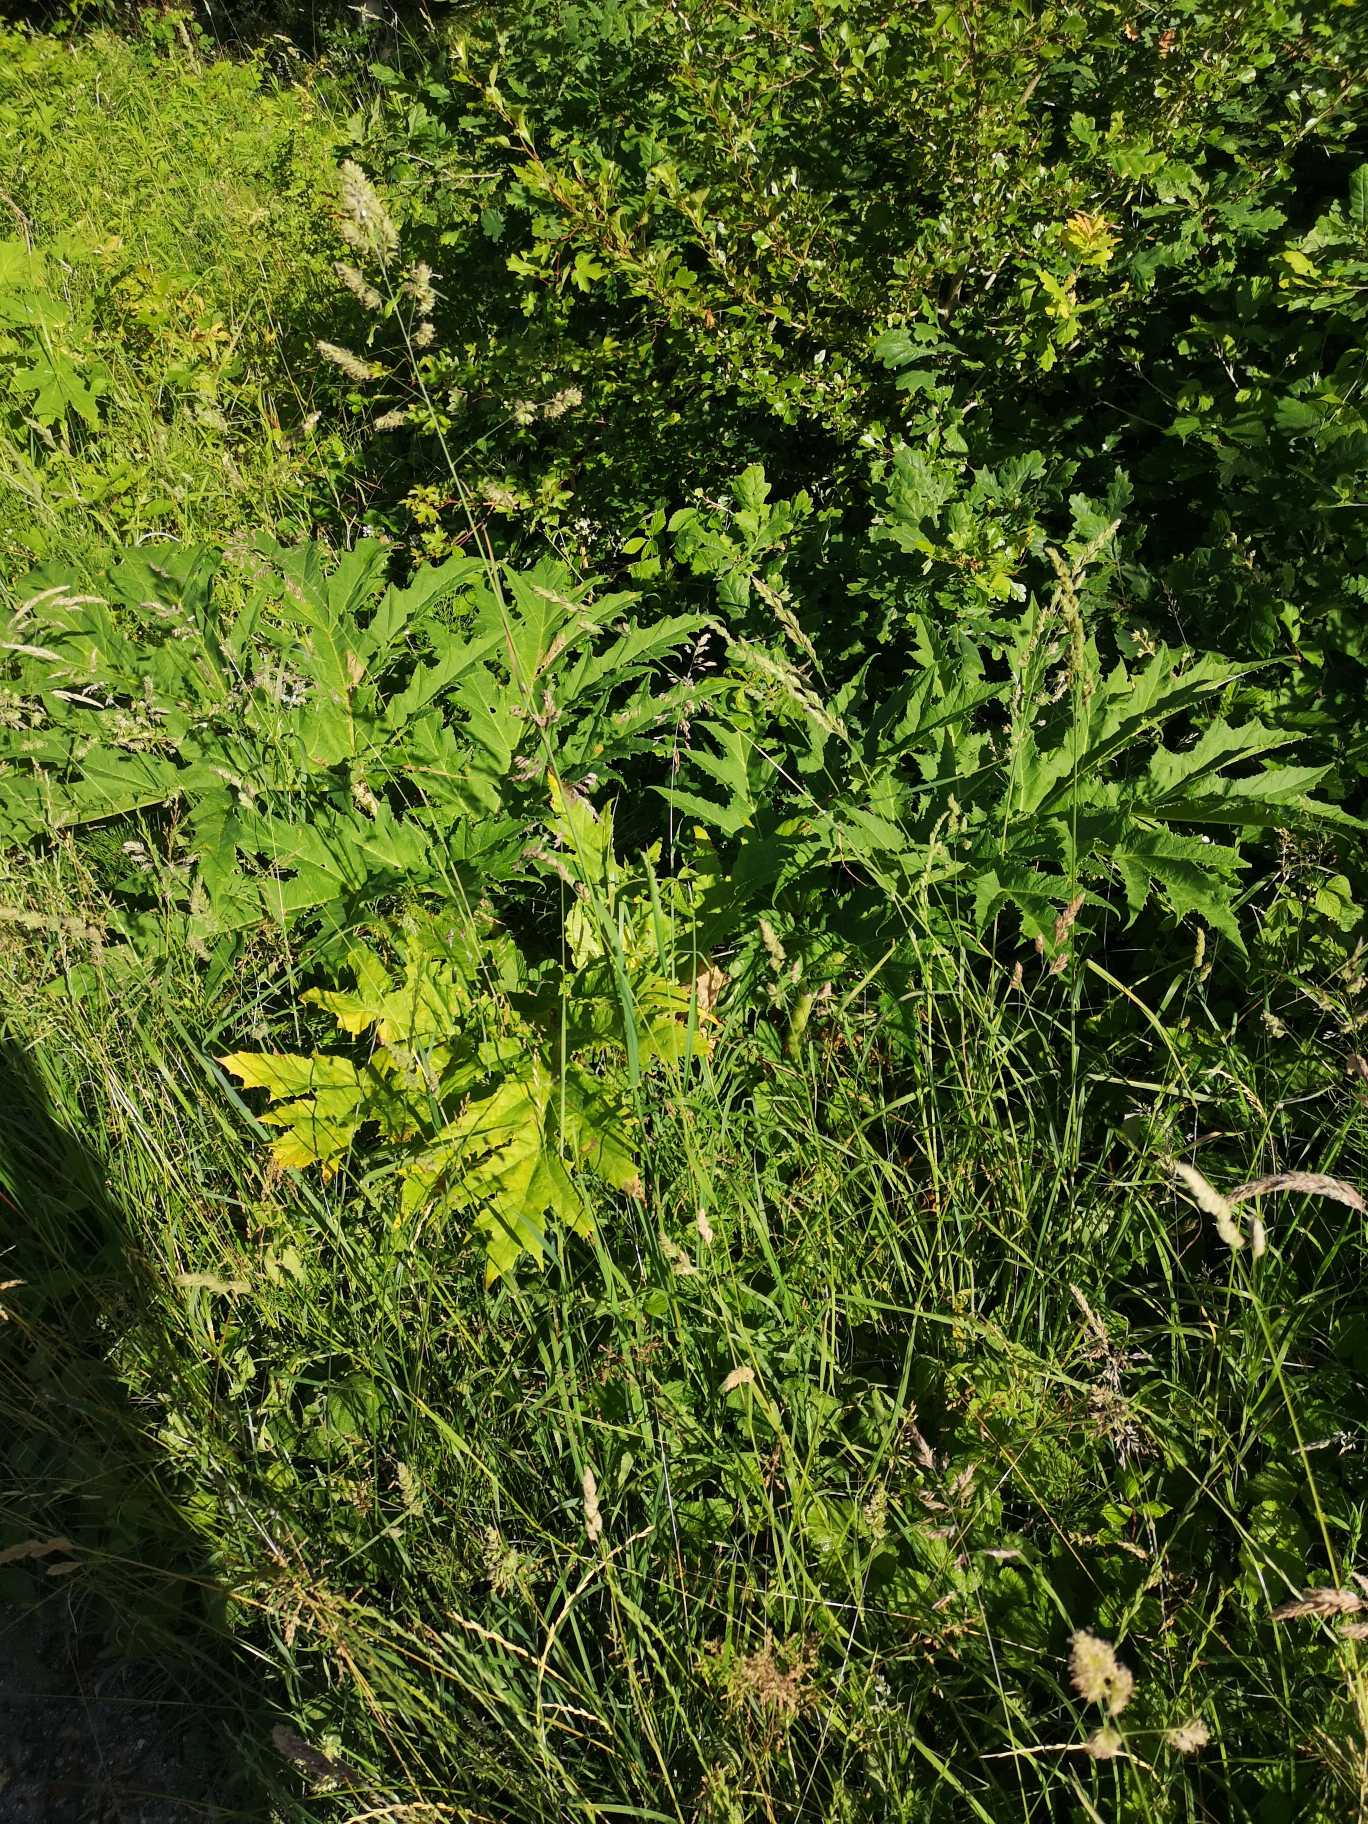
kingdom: Plantae
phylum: Tracheophyta
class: Magnoliopsida
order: Apiales
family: Apiaceae
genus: Heracleum
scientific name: Heracleum mantegazzianum
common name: Kæmpe-bjørneklo
